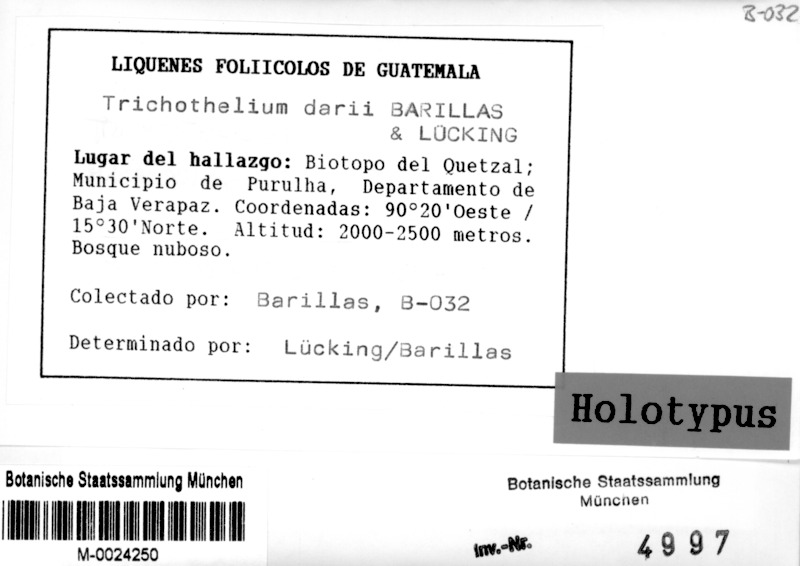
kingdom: Fungi
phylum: Ascomycota
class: Lecanoromycetes
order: Ostropales
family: Porinaceae
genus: Trichothelium
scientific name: Trichothelium
